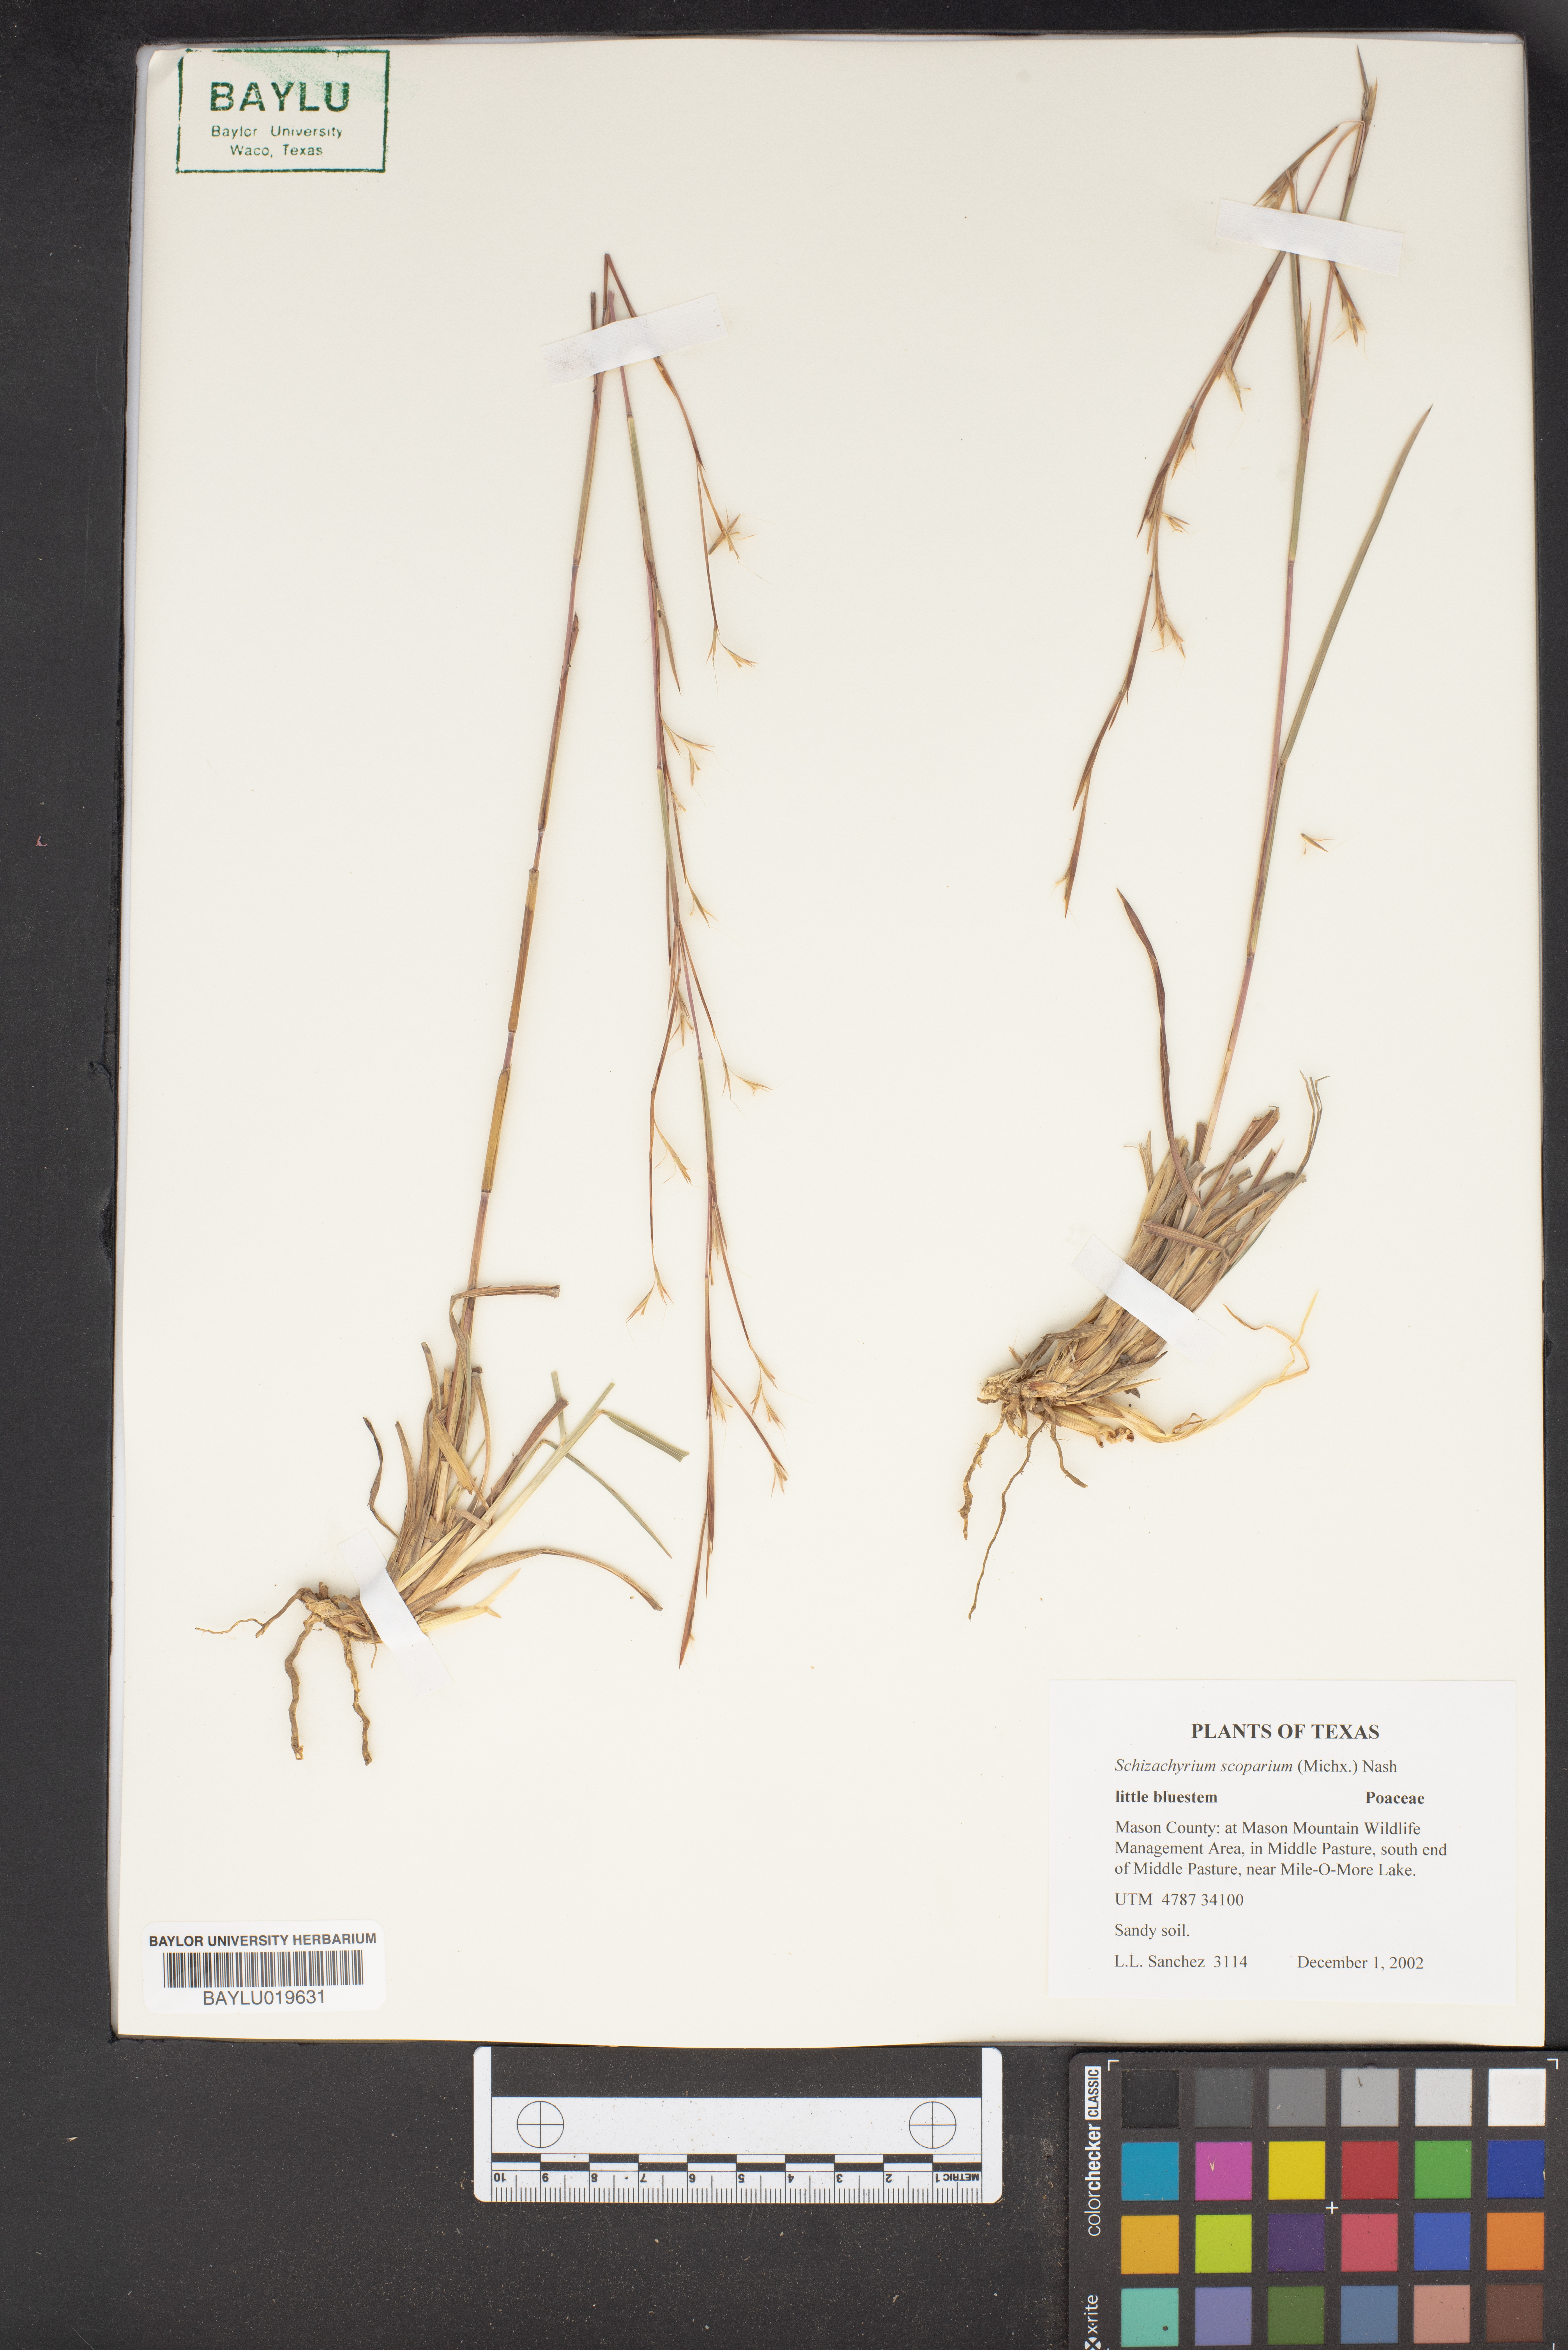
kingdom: Plantae
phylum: Tracheophyta
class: Liliopsida
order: Poales
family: Poaceae
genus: Schizachyrium
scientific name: Schizachyrium scoparium
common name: Little bluestem
